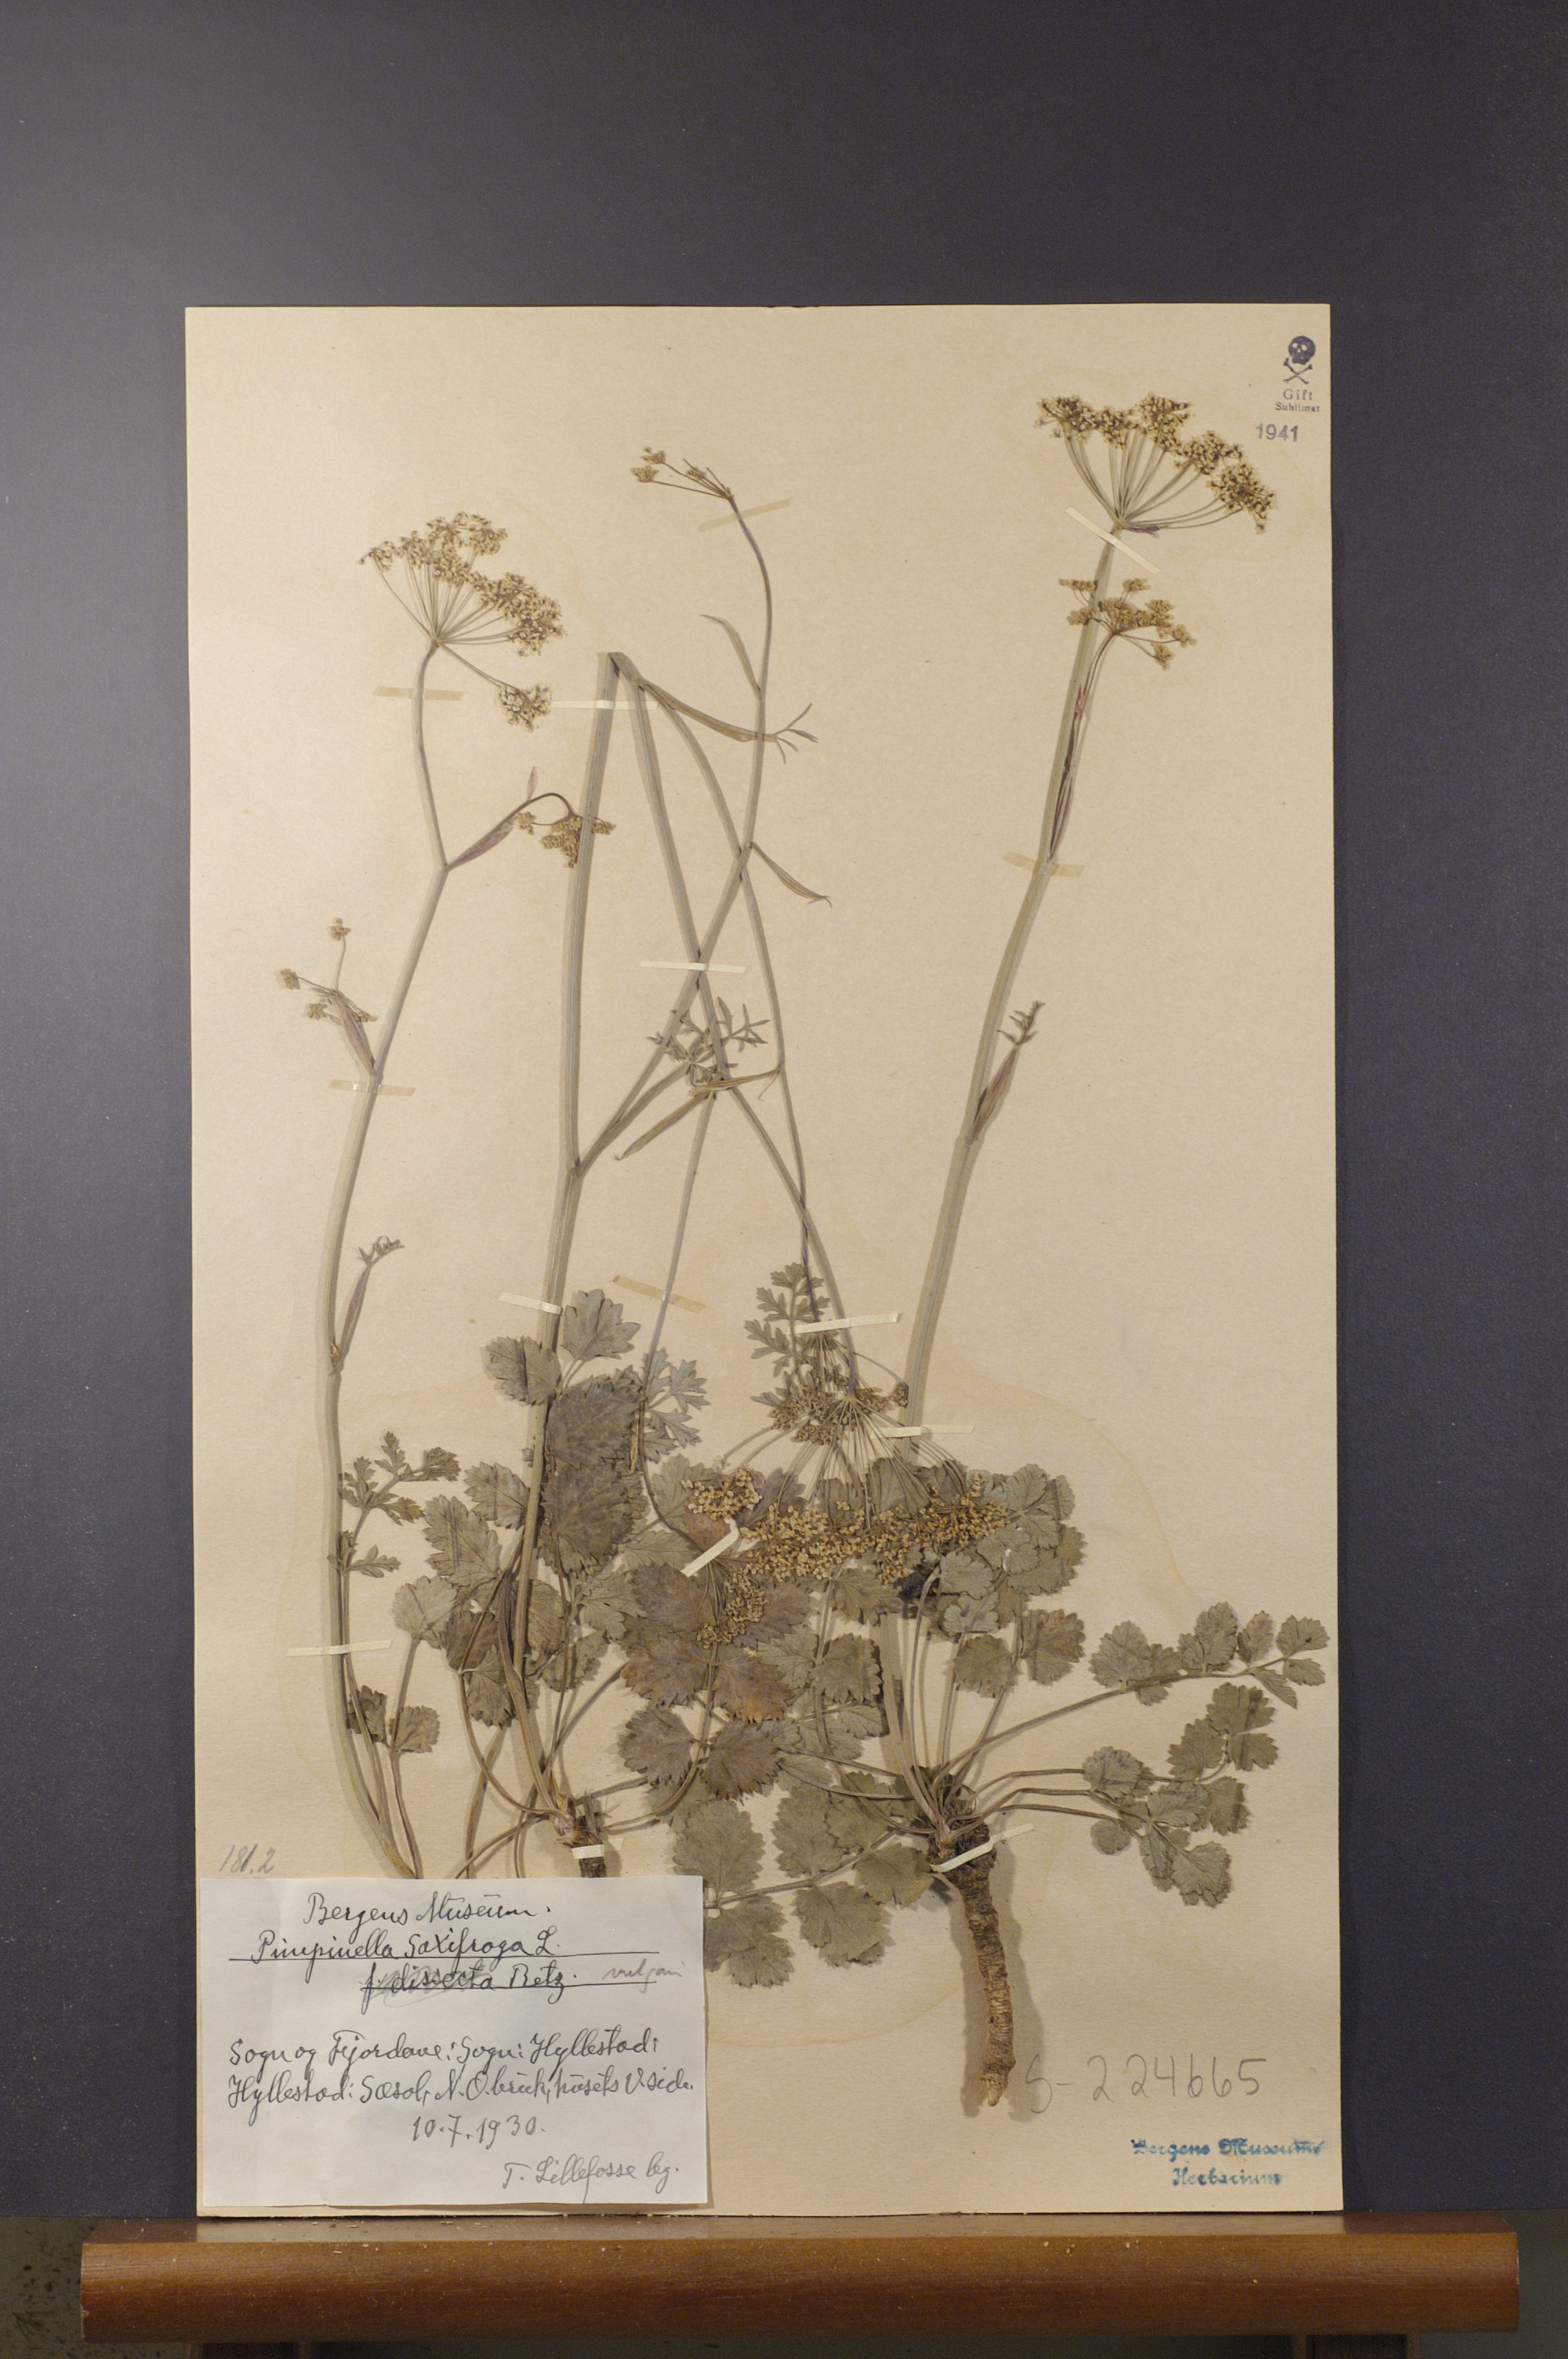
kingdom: Plantae
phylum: Tracheophyta
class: Magnoliopsida
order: Apiales
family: Apiaceae
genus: Pimpinella
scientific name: Pimpinella saxifraga
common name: Burnet-saxifrage
